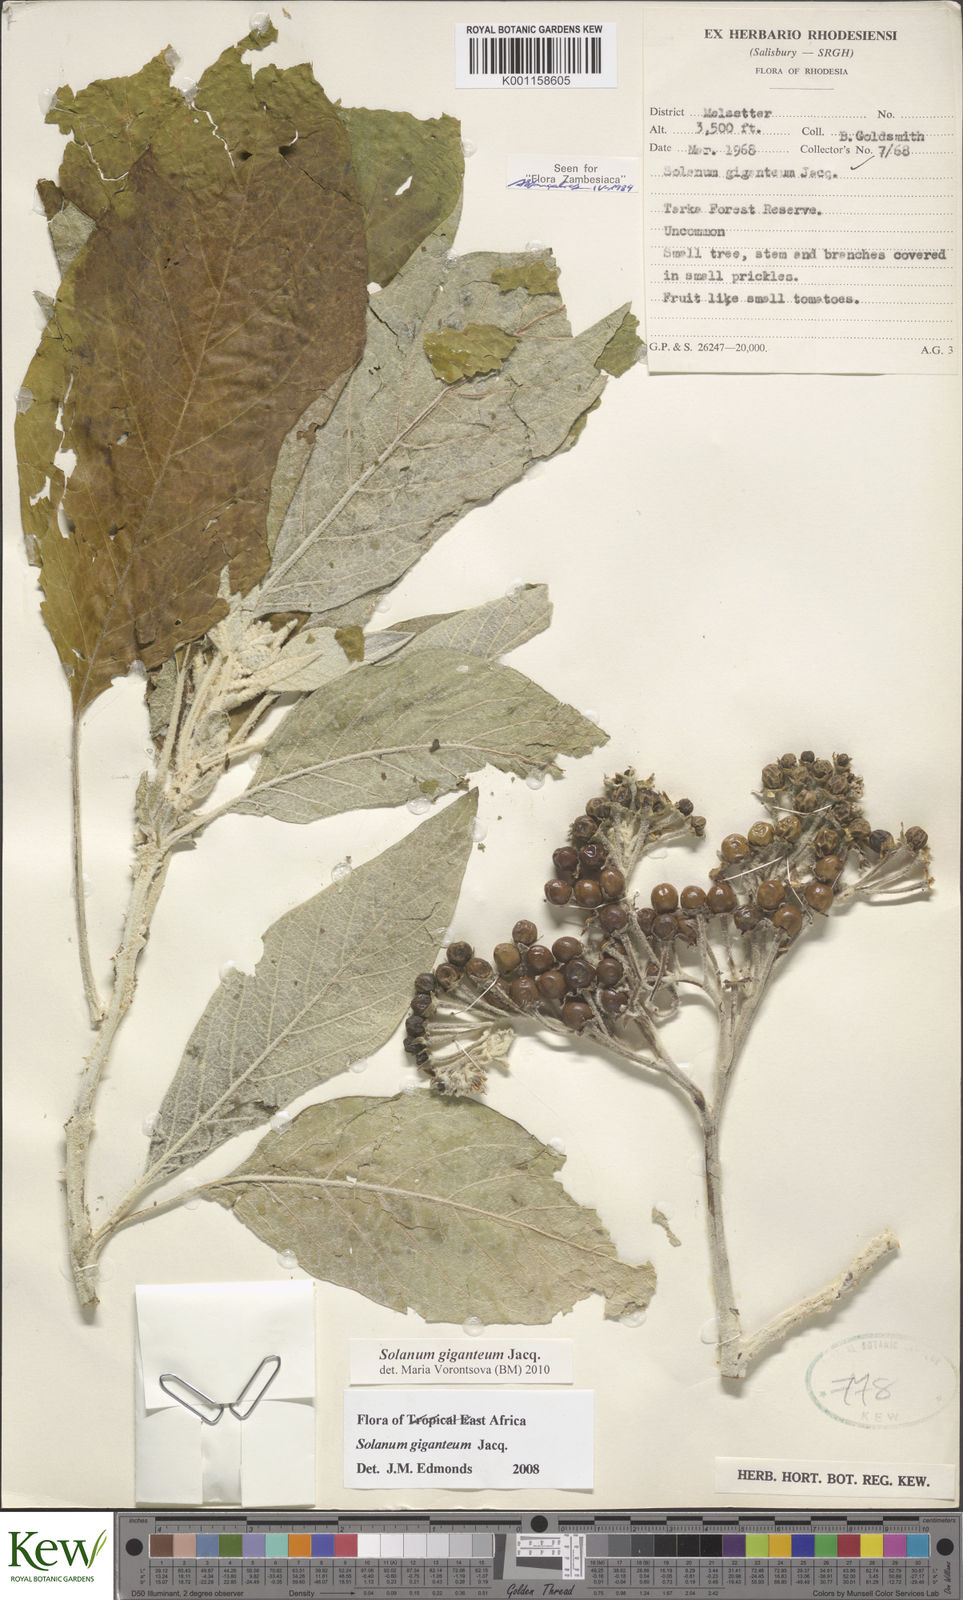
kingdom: Plantae
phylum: Tracheophyta
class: Magnoliopsida
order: Solanales
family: Solanaceae
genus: Solanum
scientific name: Solanum giganteum
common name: Healing-leaf-tree
